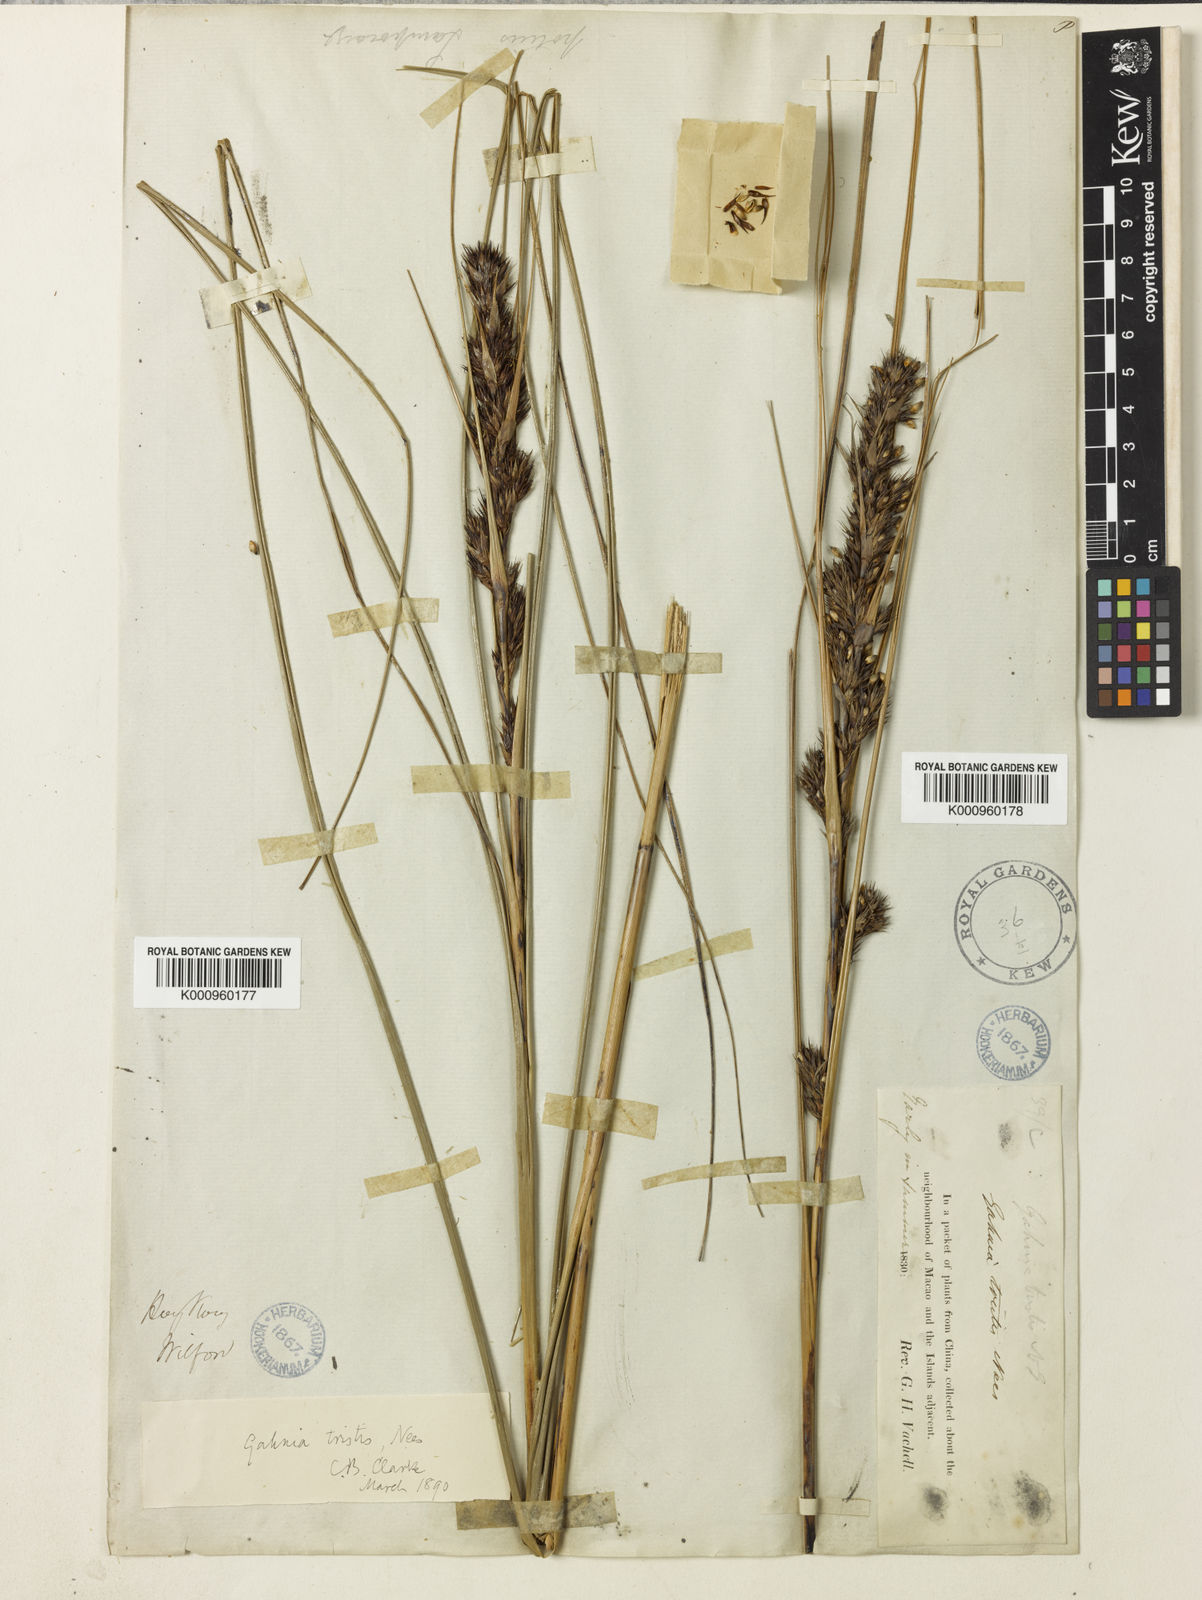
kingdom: Plantae
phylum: Tracheophyta
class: Liliopsida
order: Poales
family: Cyperaceae
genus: Gahnia
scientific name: Gahnia tristis
